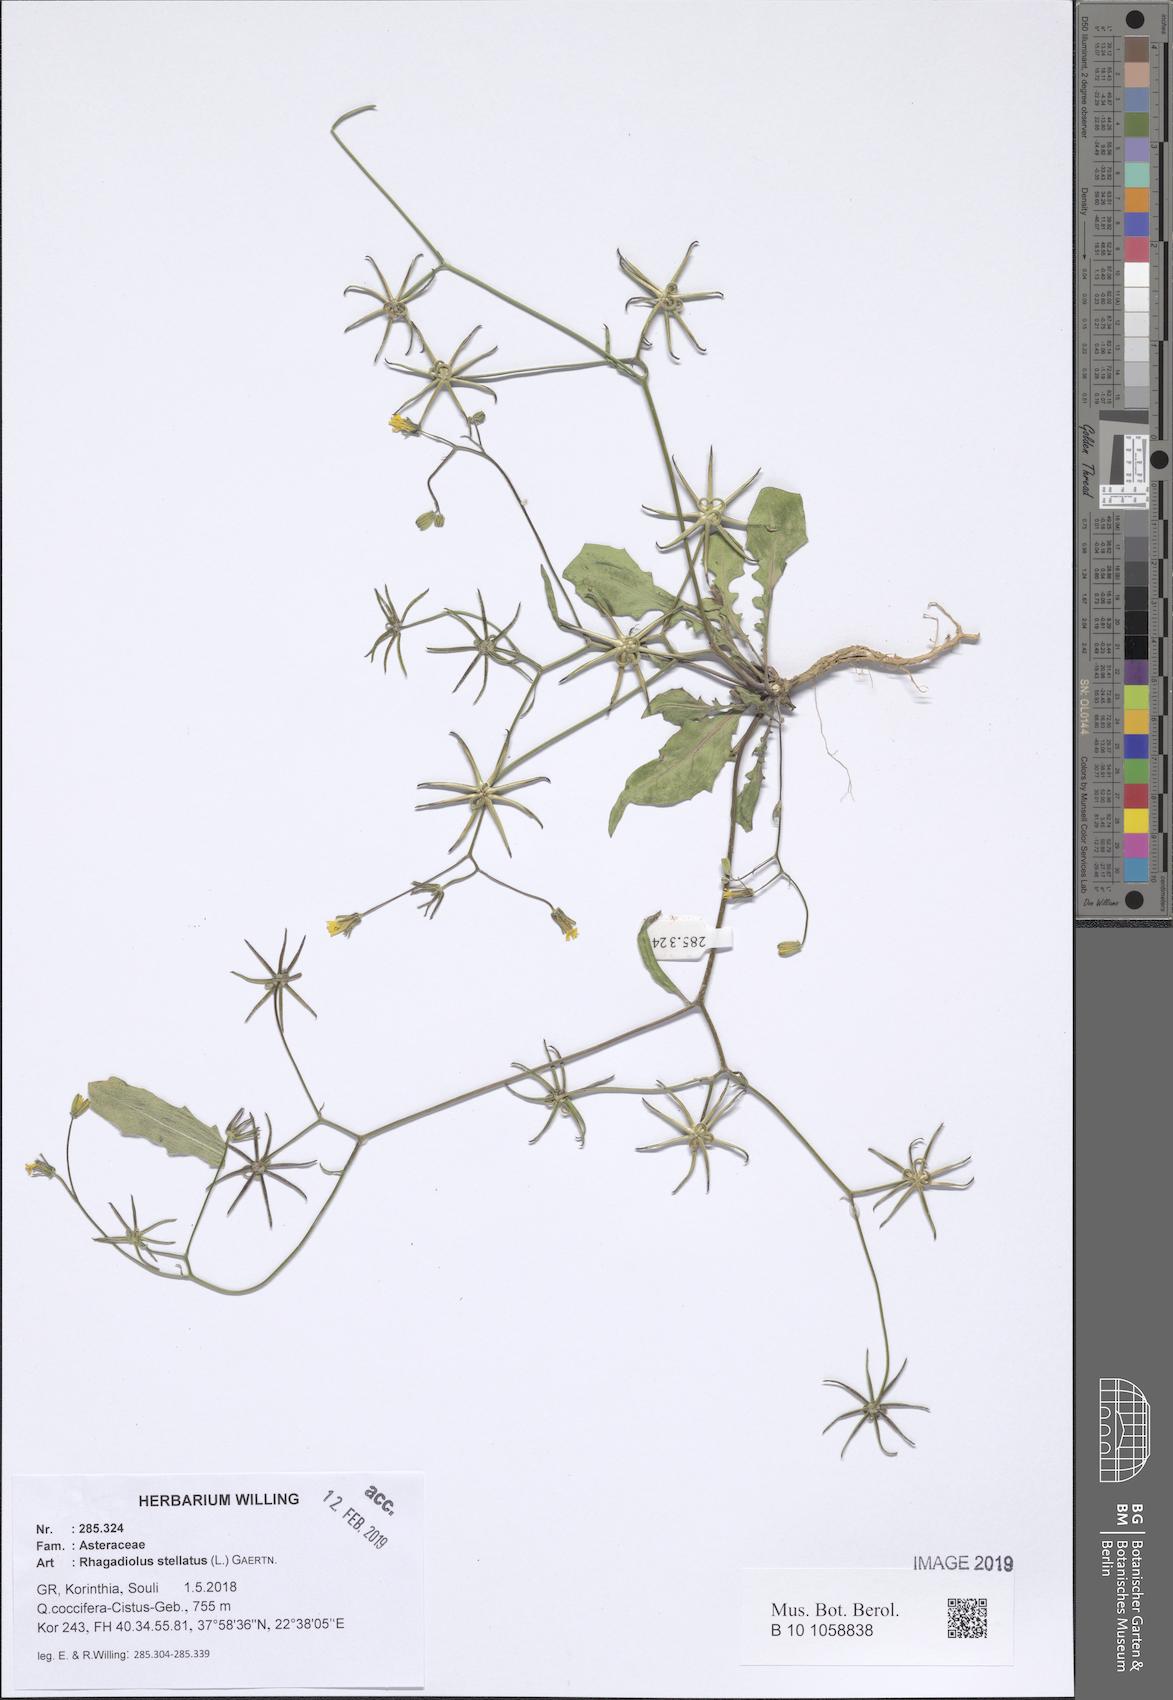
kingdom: Plantae
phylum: Tracheophyta
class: Magnoliopsida
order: Asterales
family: Asteraceae
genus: Rhagadiolus
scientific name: Rhagadiolus stellatus
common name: Star hawkbit
